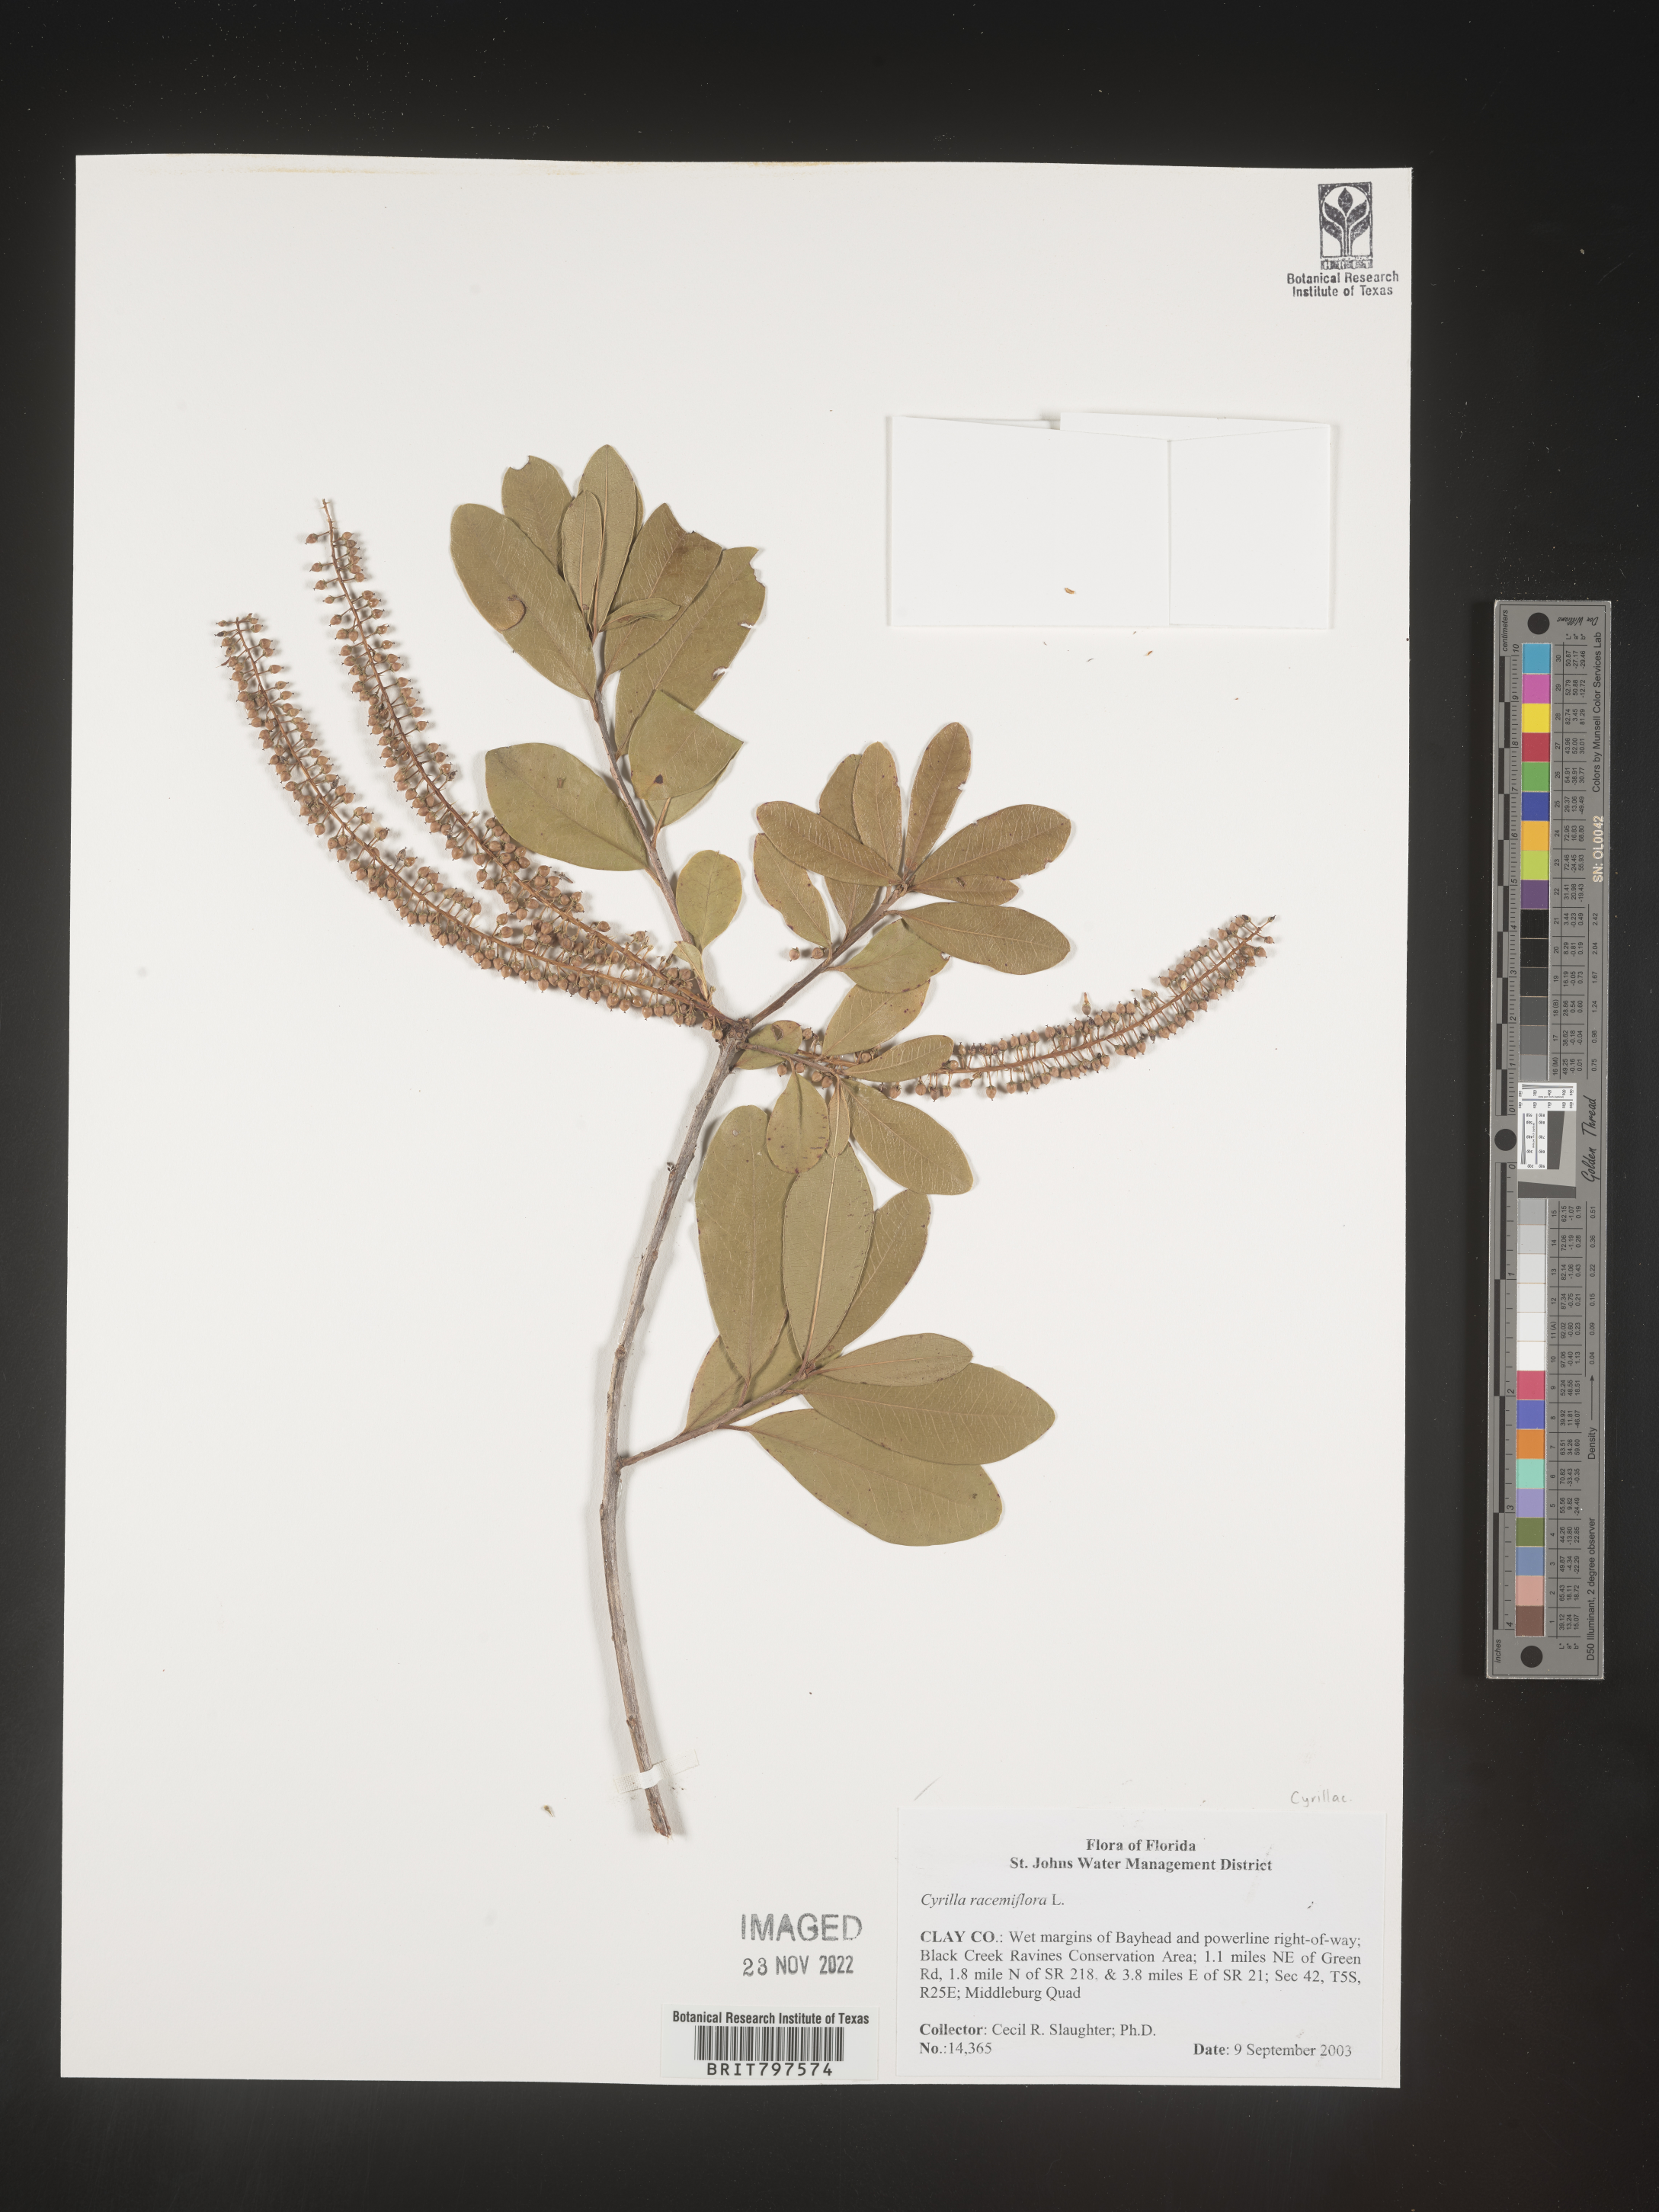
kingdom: Plantae
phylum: Tracheophyta
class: Magnoliopsida
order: Ericales
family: Cyrillaceae
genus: Cyrilla
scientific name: Cyrilla racemiflora
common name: Black titi
